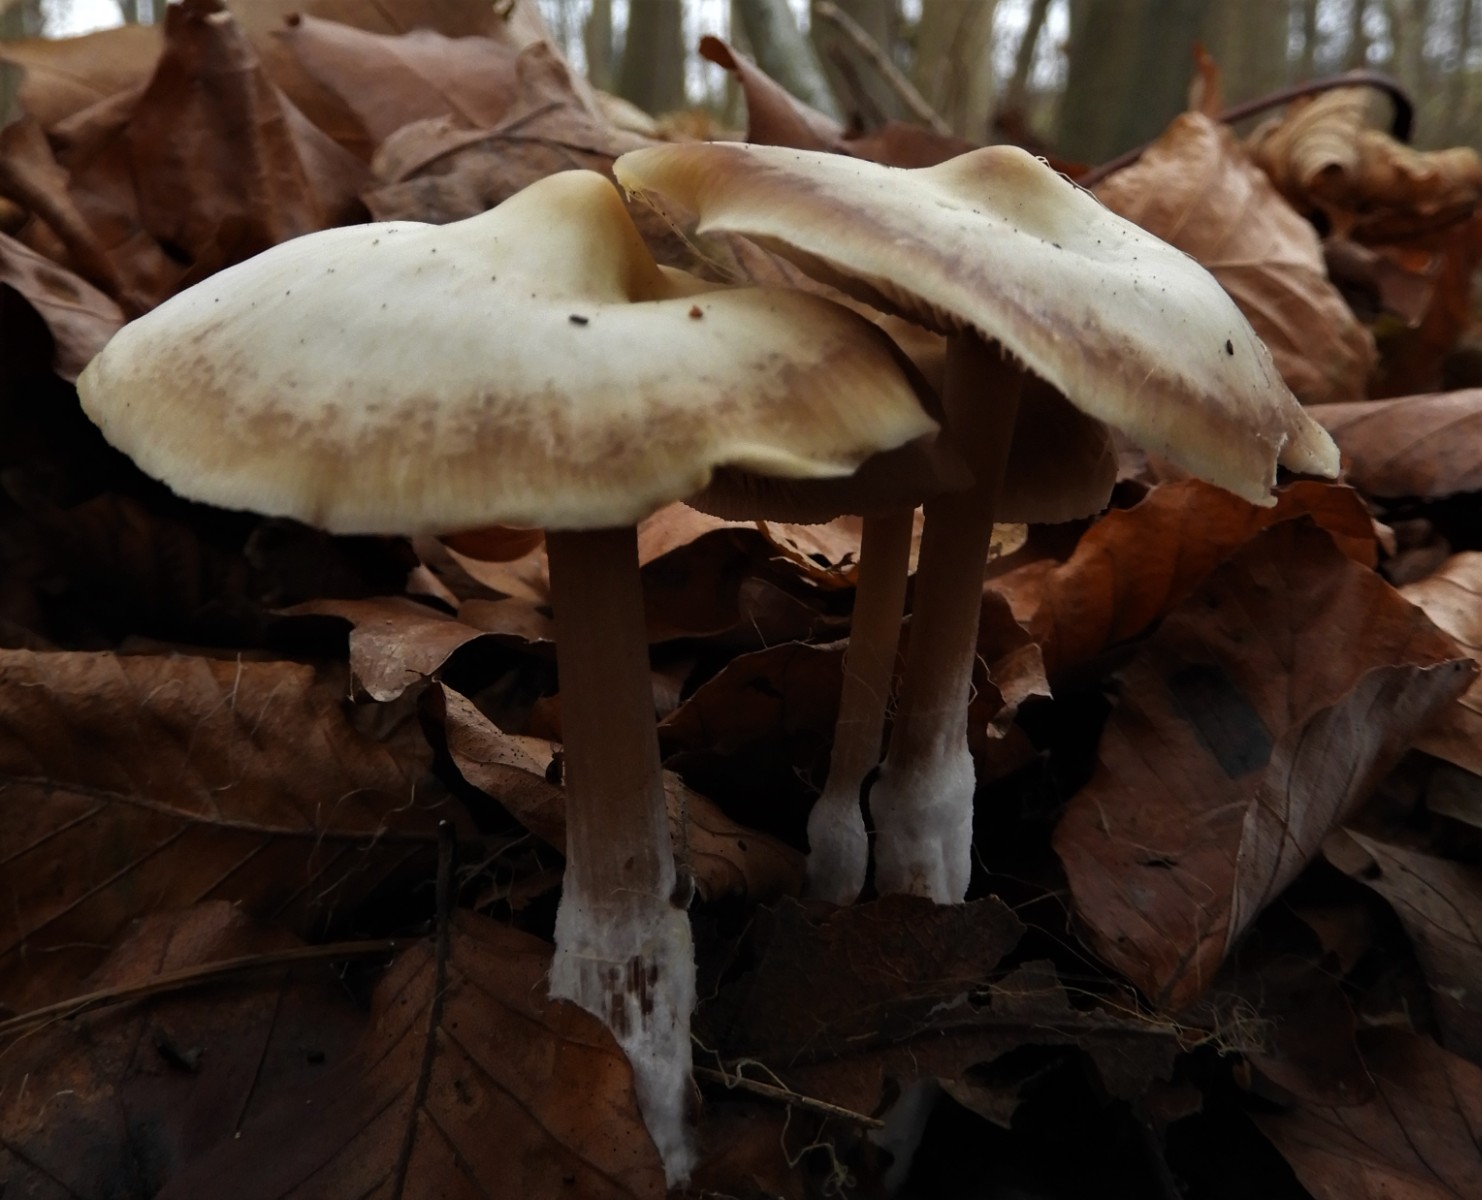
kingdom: Fungi
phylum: Basidiomycota
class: Agaricomycetes
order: Agaricales
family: Omphalotaceae
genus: Rhodocollybia
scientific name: Rhodocollybia asema
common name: horngrå fladhat
